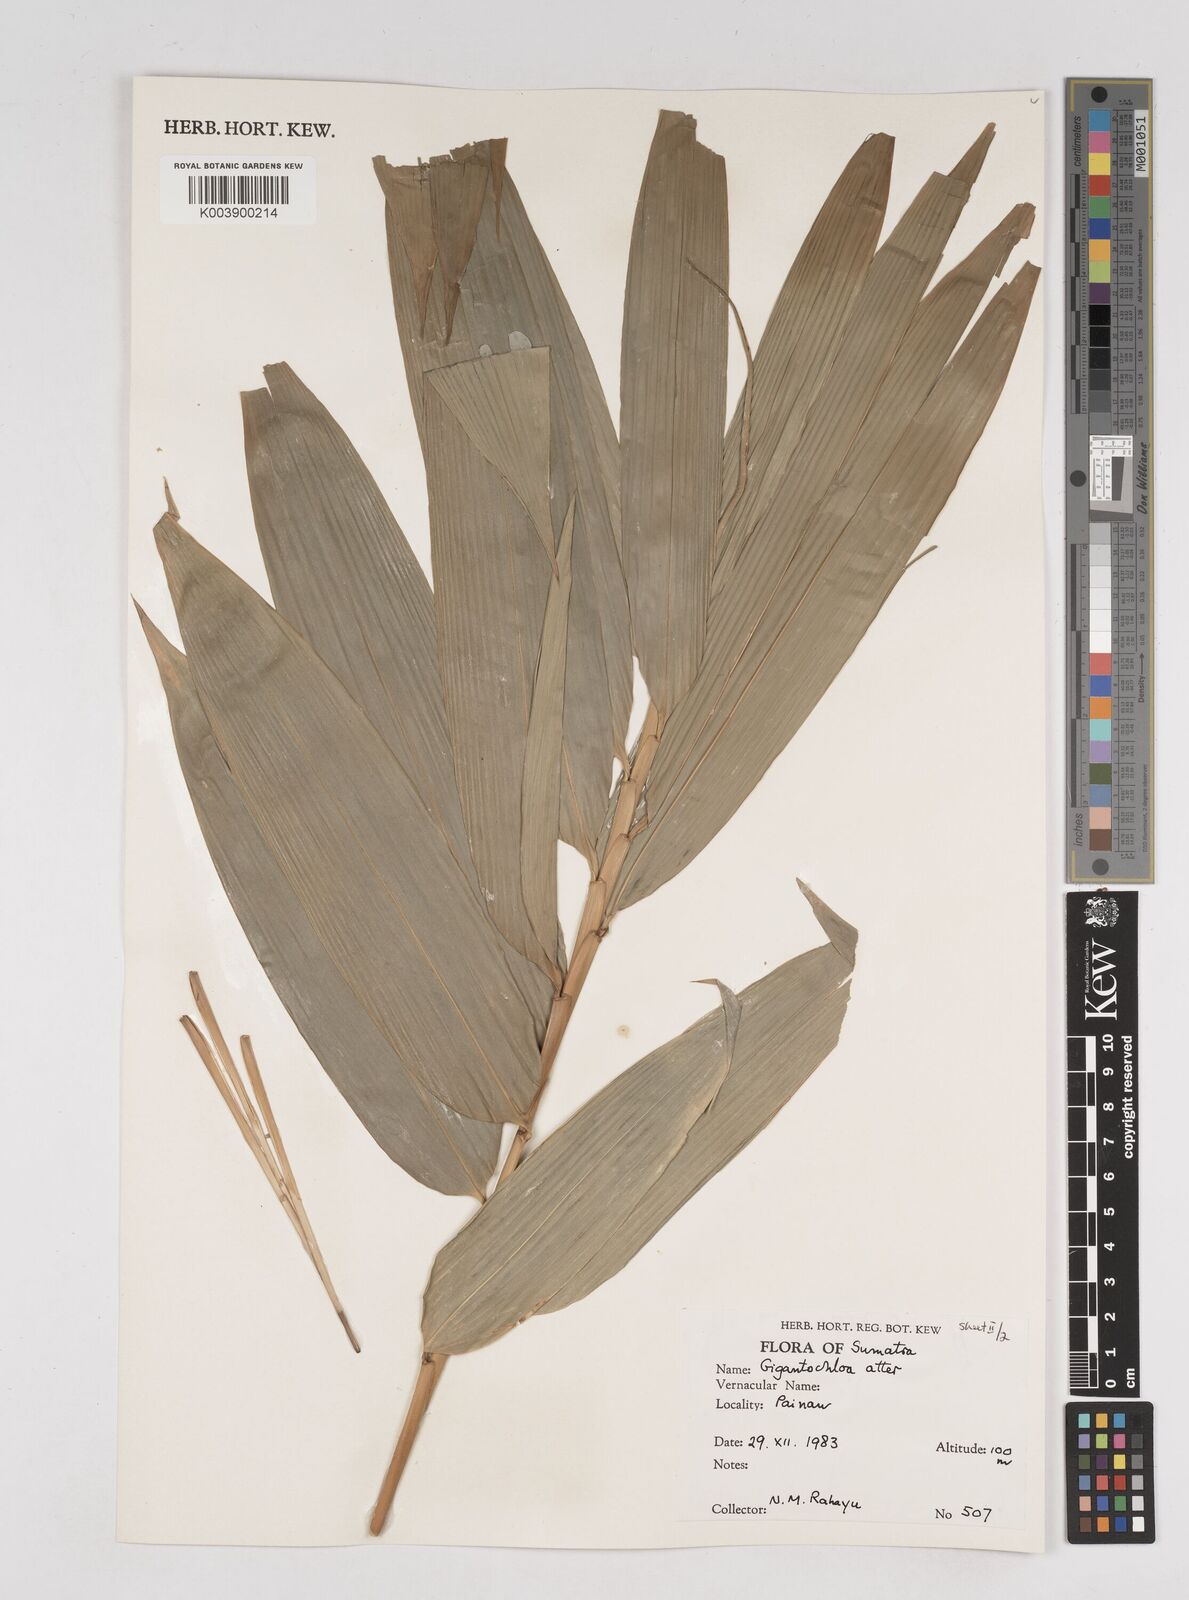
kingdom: Plantae
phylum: Tracheophyta
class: Liliopsida
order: Poales
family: Poaceae
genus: Gigantochloa
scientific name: Gigantochloa atter
